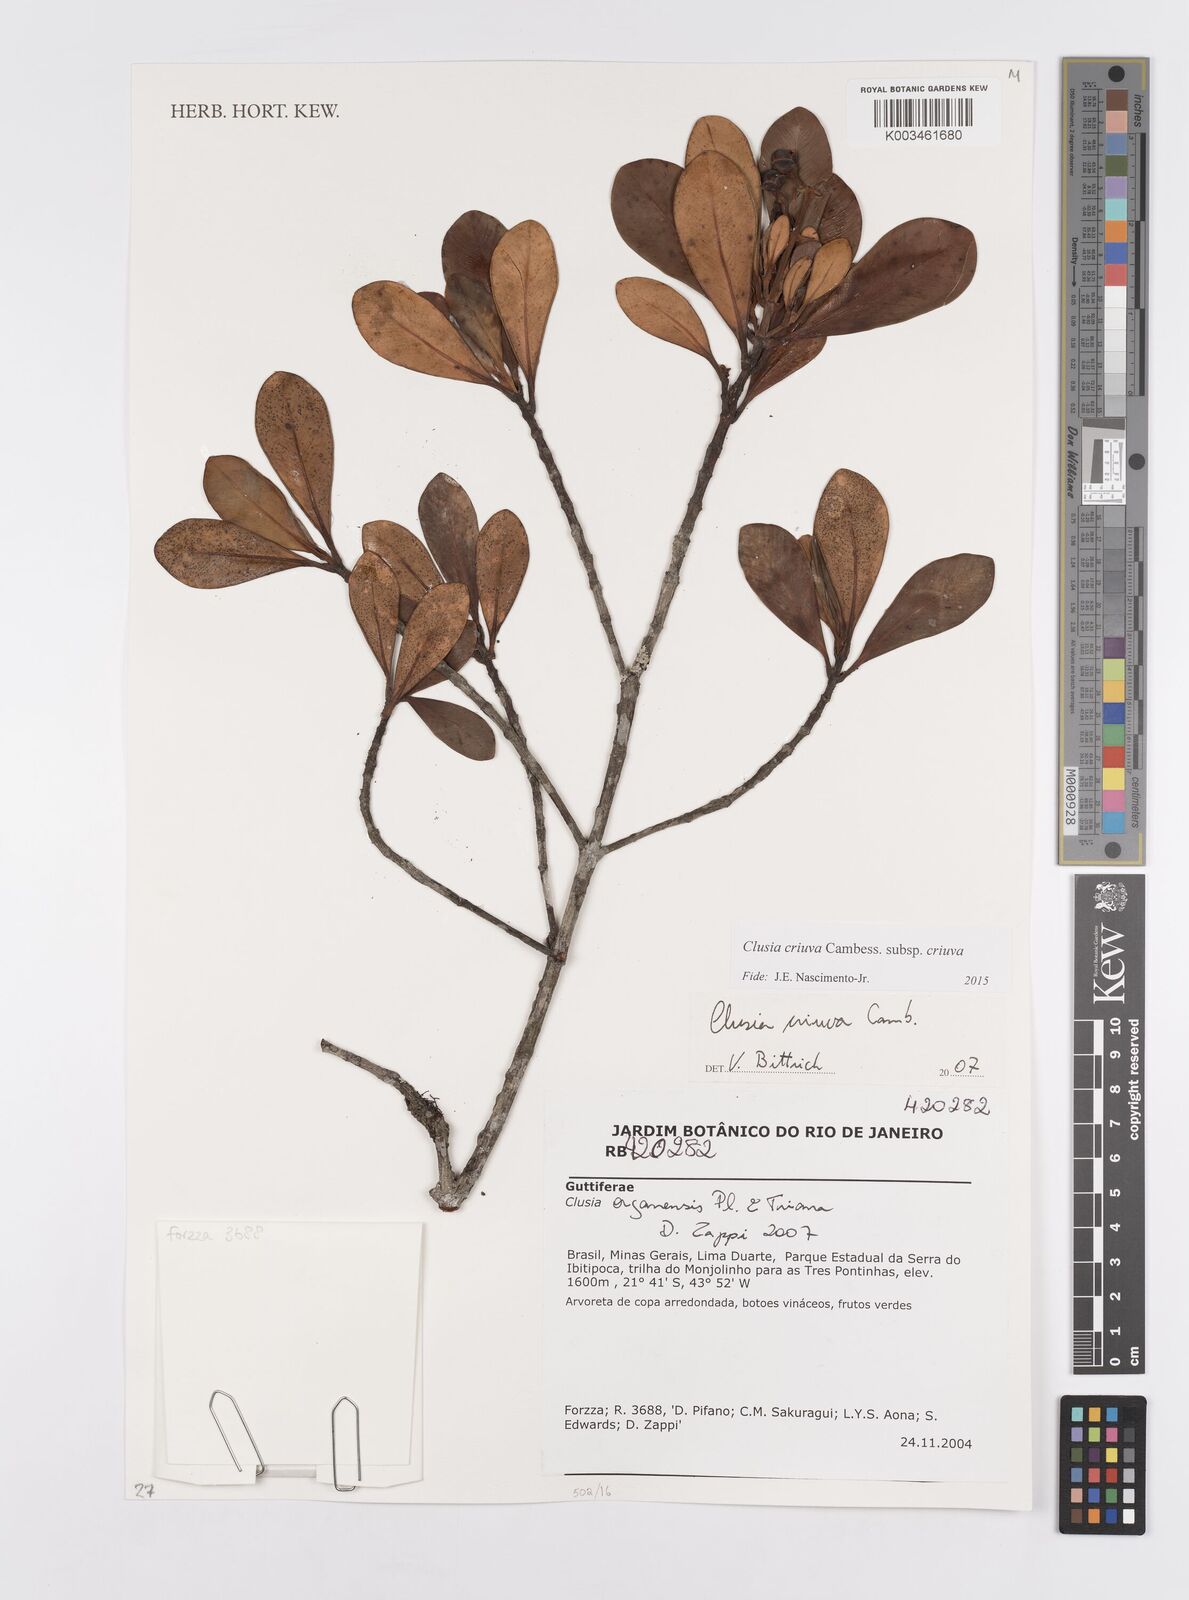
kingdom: Plantae
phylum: Tracheophyta
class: Magnoliopsida
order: Malpighiales
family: Clusiaceae
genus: Clusia
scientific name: Clusia criuva
